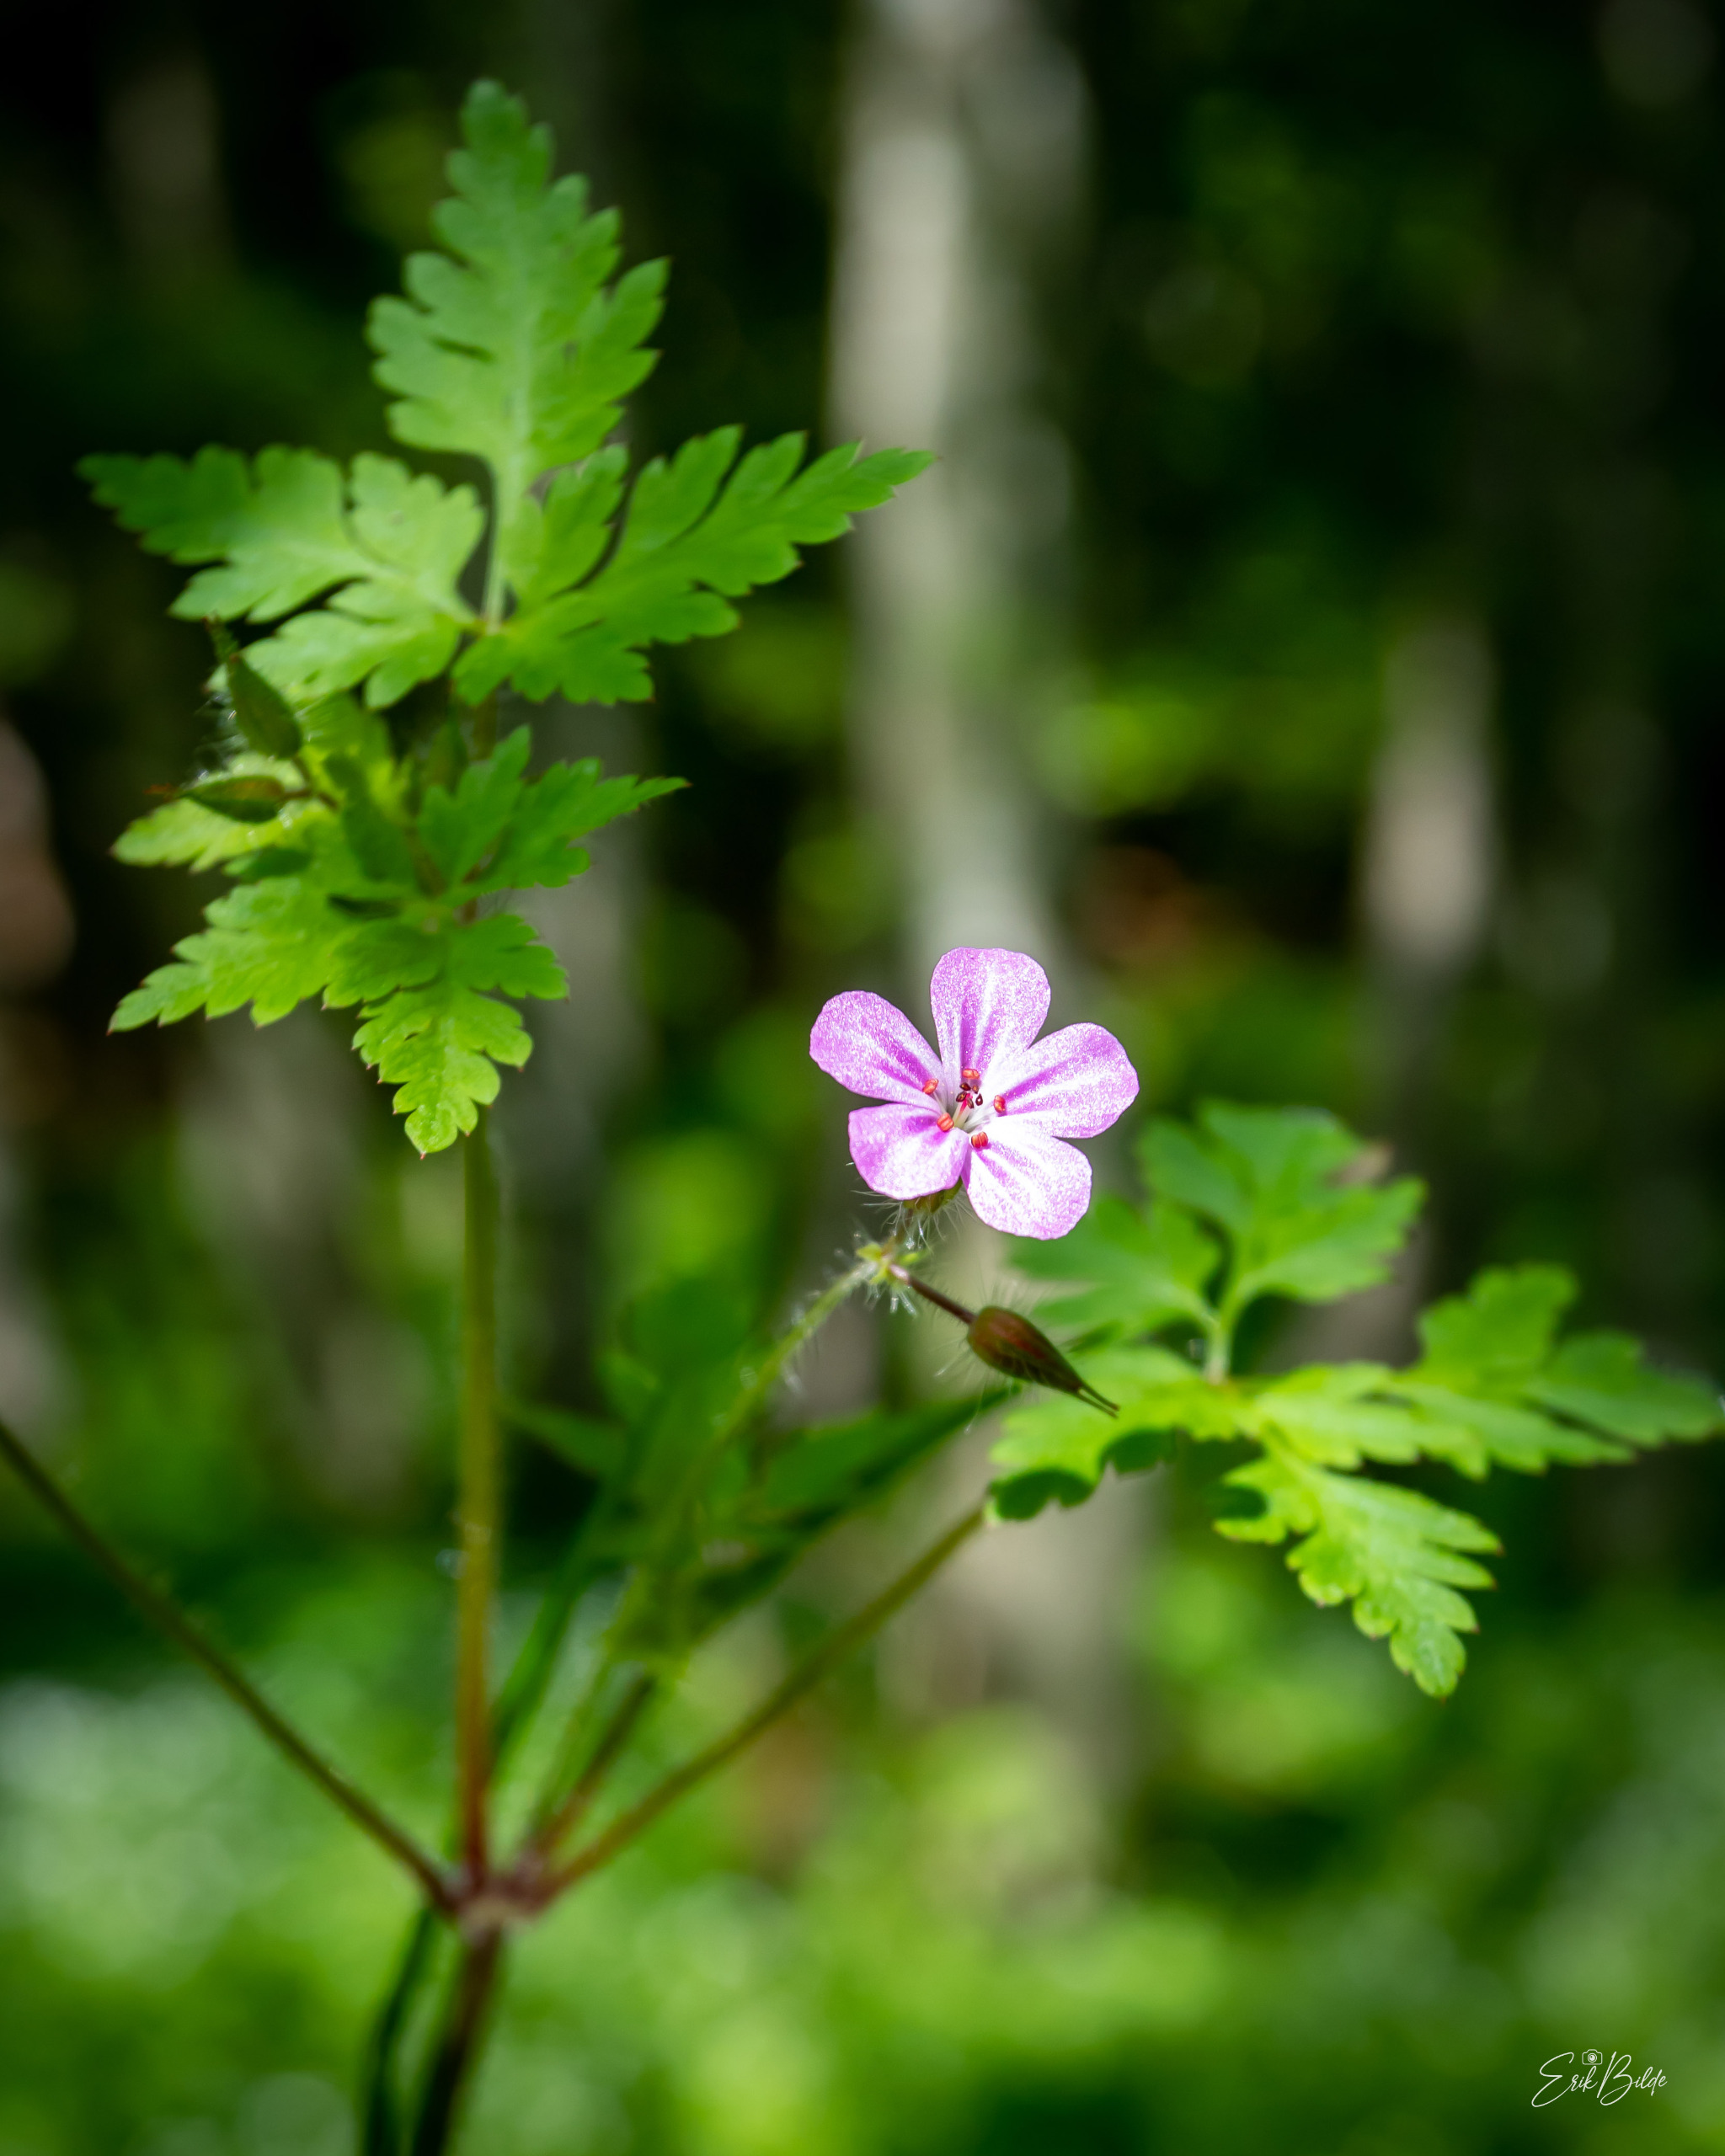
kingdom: Plantae
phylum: Tracheophyta
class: Magnoliopsida
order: Geraniales
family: Geraniaceae
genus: Geranium
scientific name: Geranium robertianum
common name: Stinkende storkenæb
